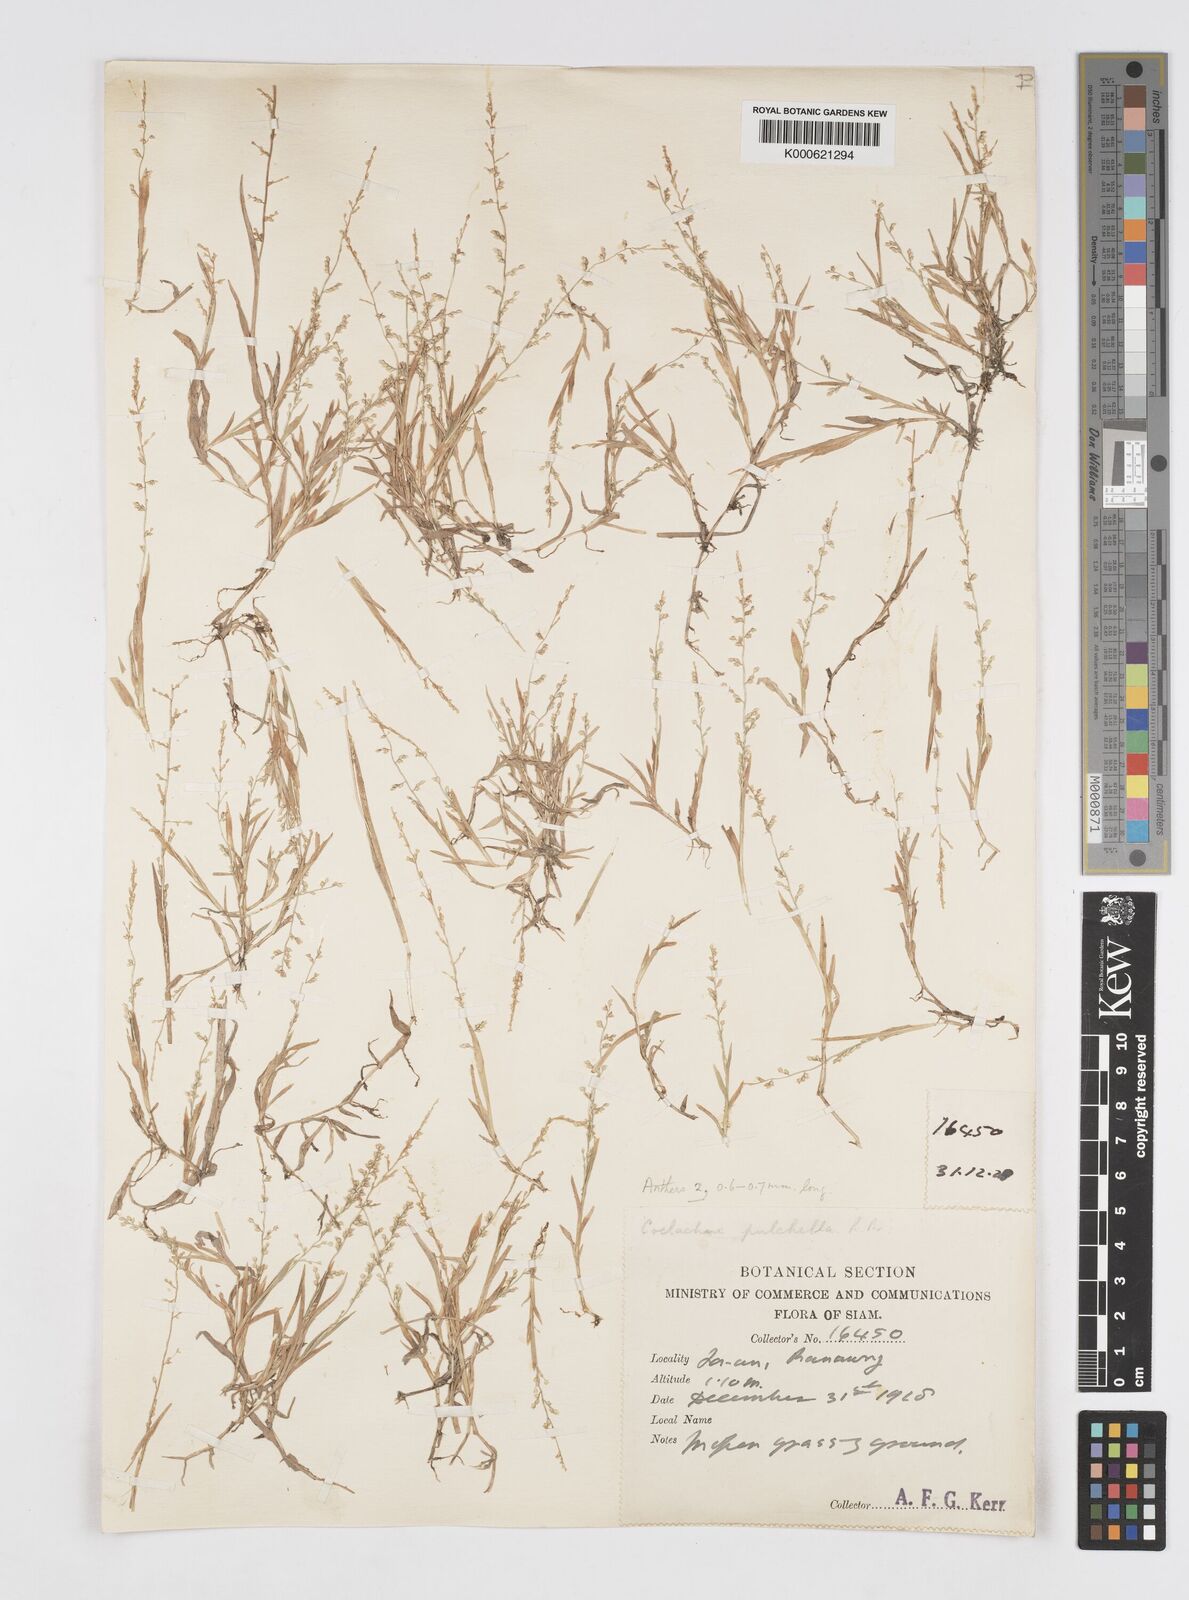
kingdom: Plantae
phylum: Tracheophyta
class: Liliopsida
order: Poales
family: Poaceae
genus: Coelachne
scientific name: Coelachne simpliciuscula
